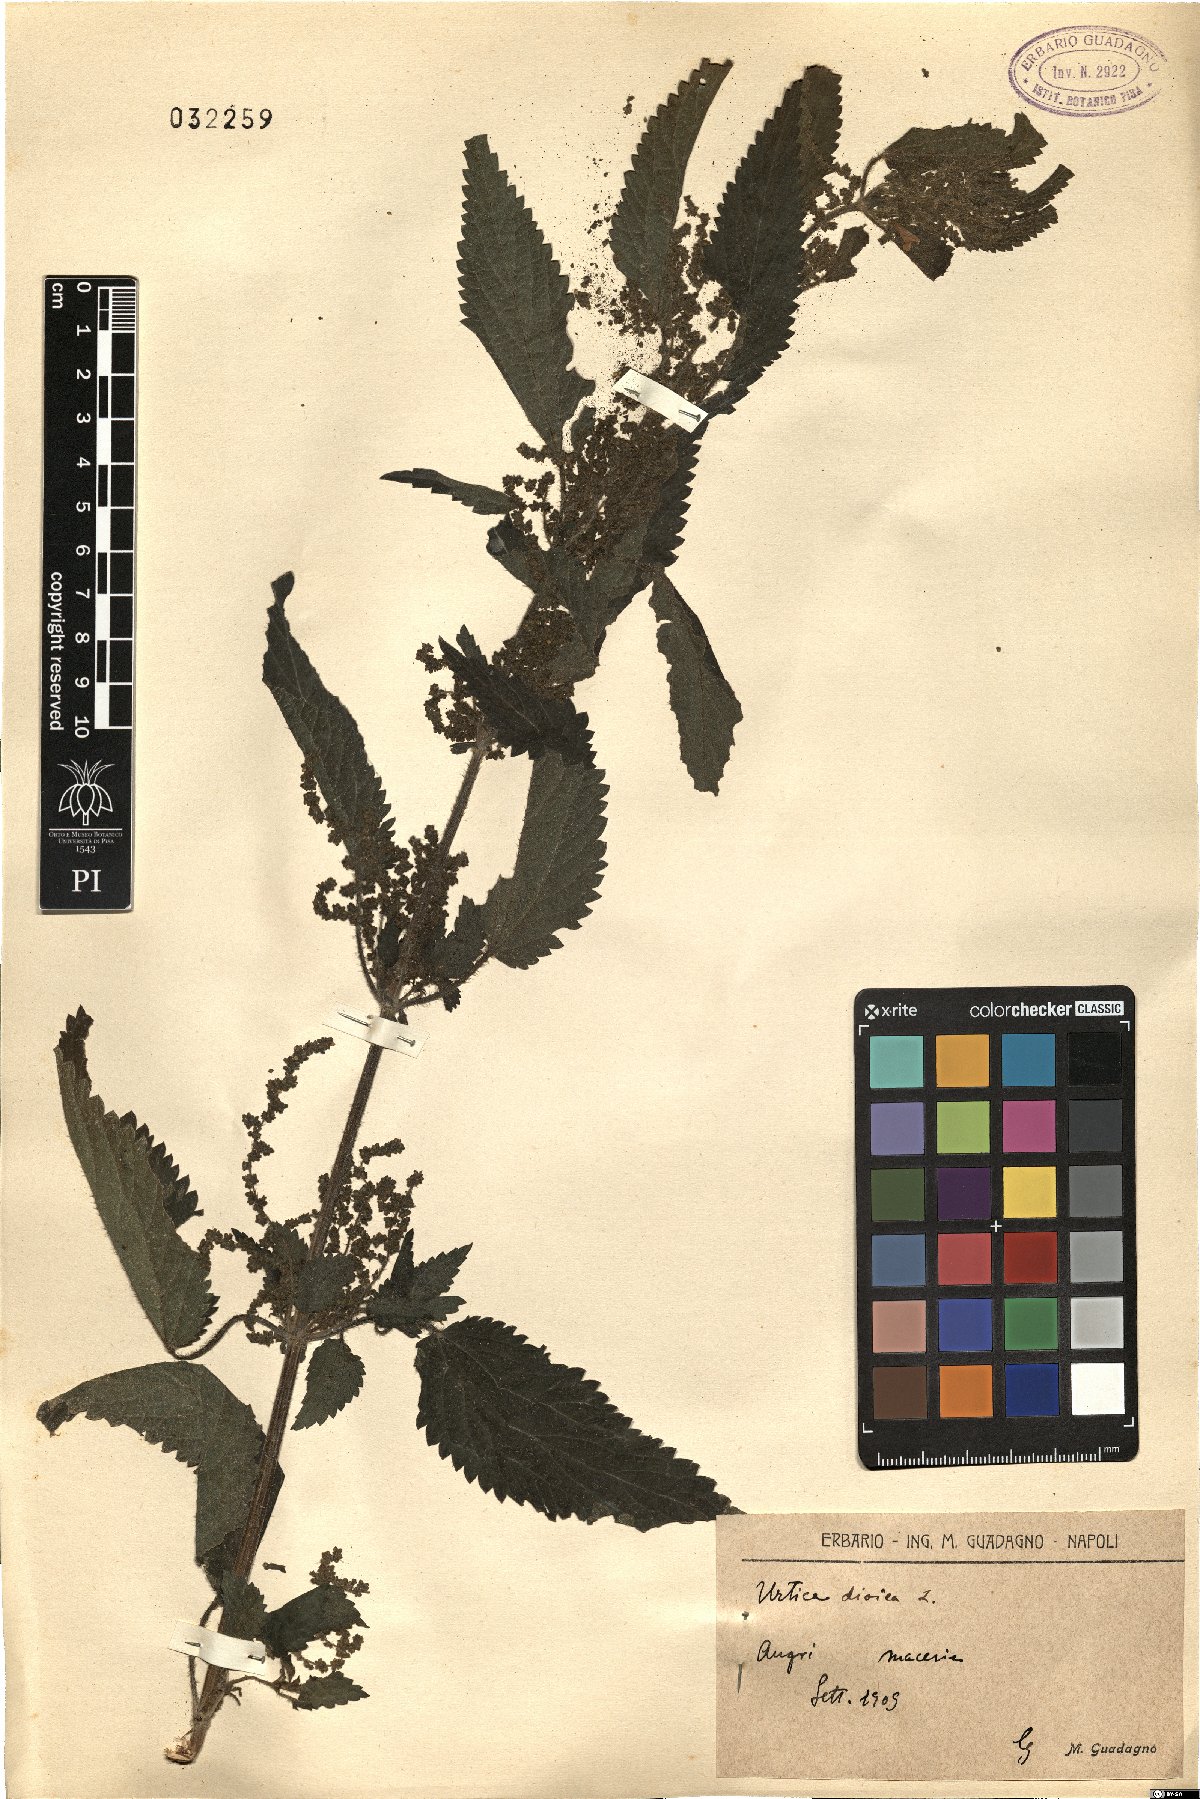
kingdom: Plantae
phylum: Tracheophyta
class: Magnoliopsida
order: Rosales
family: Urticaceae
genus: Urtica
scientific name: Urtica dioica
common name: Common nettle
